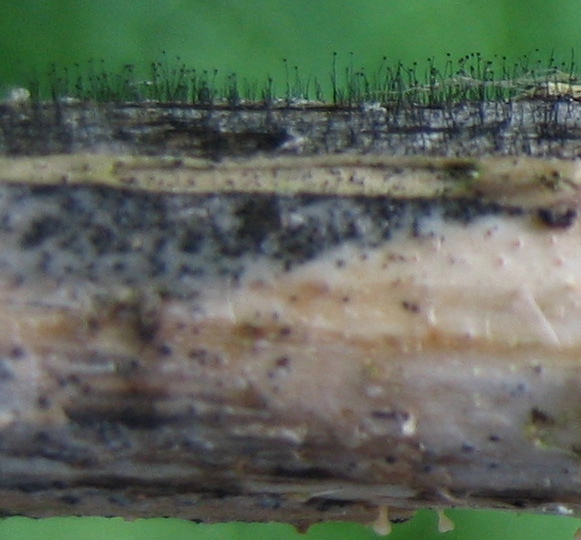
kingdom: Fungi
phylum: Ascomycota
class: Dothideomycetes
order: Pleosporales
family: Periconiaceae
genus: Periconia
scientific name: Periconia
